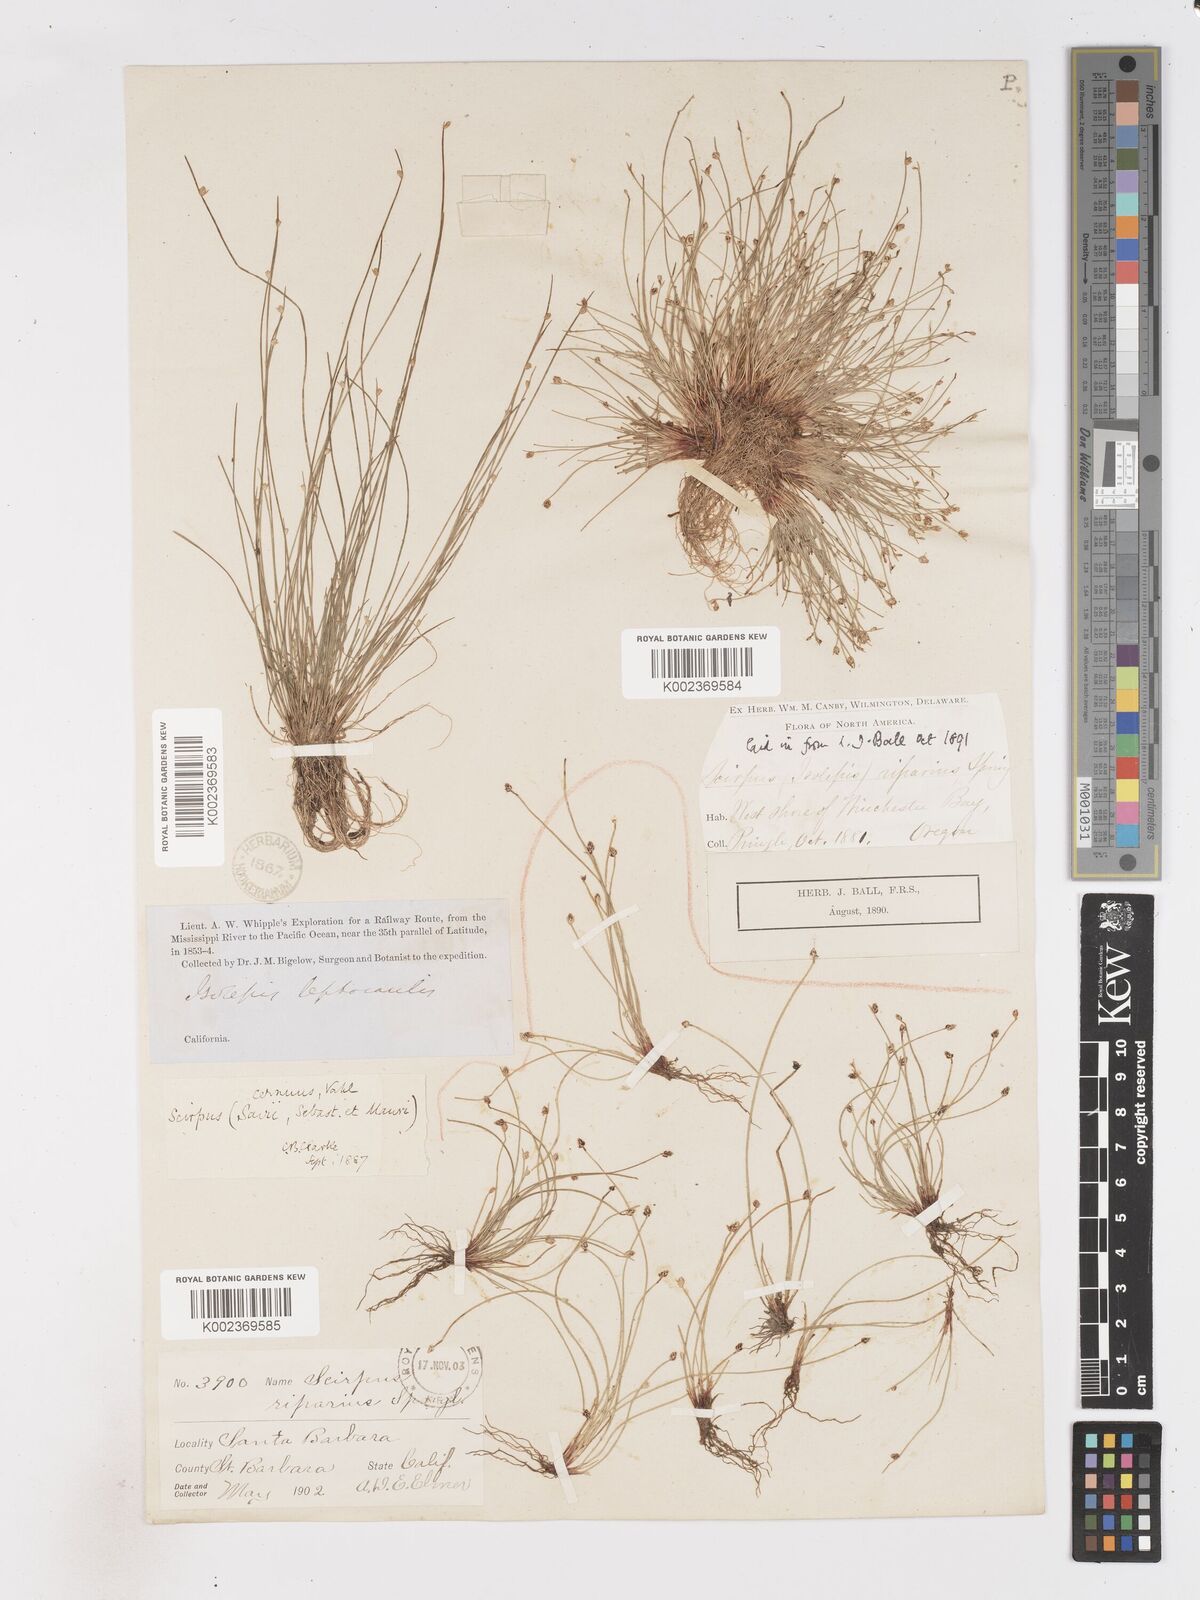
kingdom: Plantae
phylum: Tracheophyta
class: Liliopsida
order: Poales
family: Cyperaceae
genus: Isolepis
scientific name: Isolepis cernua
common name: Slender club-rush
